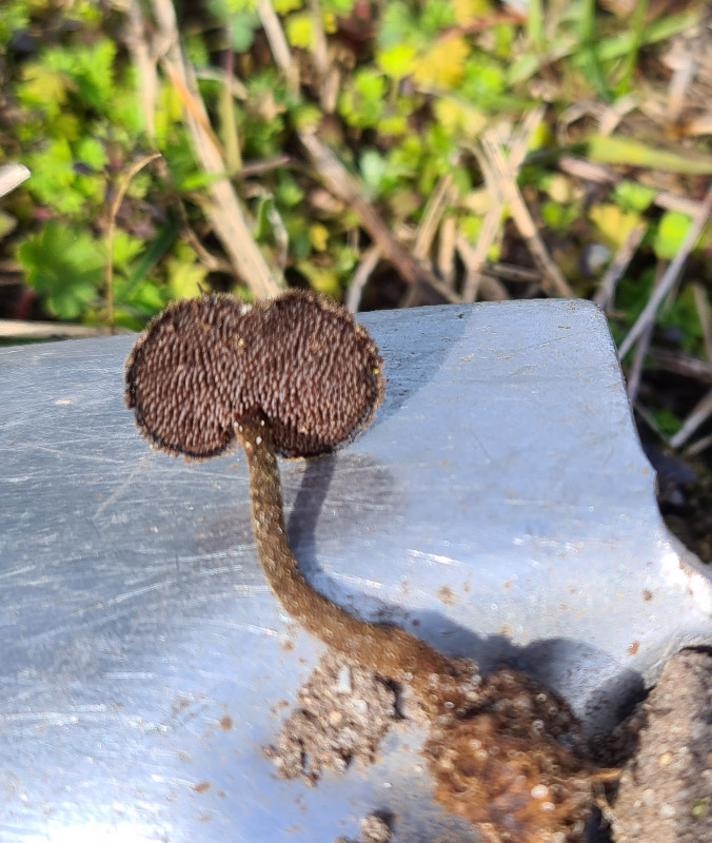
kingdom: Fungi
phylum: Basidiomycota
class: Agaricomycetes
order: Russulales
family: Auriscalpiaceae
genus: Auriscalpium
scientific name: Auriscalpium vulgare
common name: koglepigsvamp
